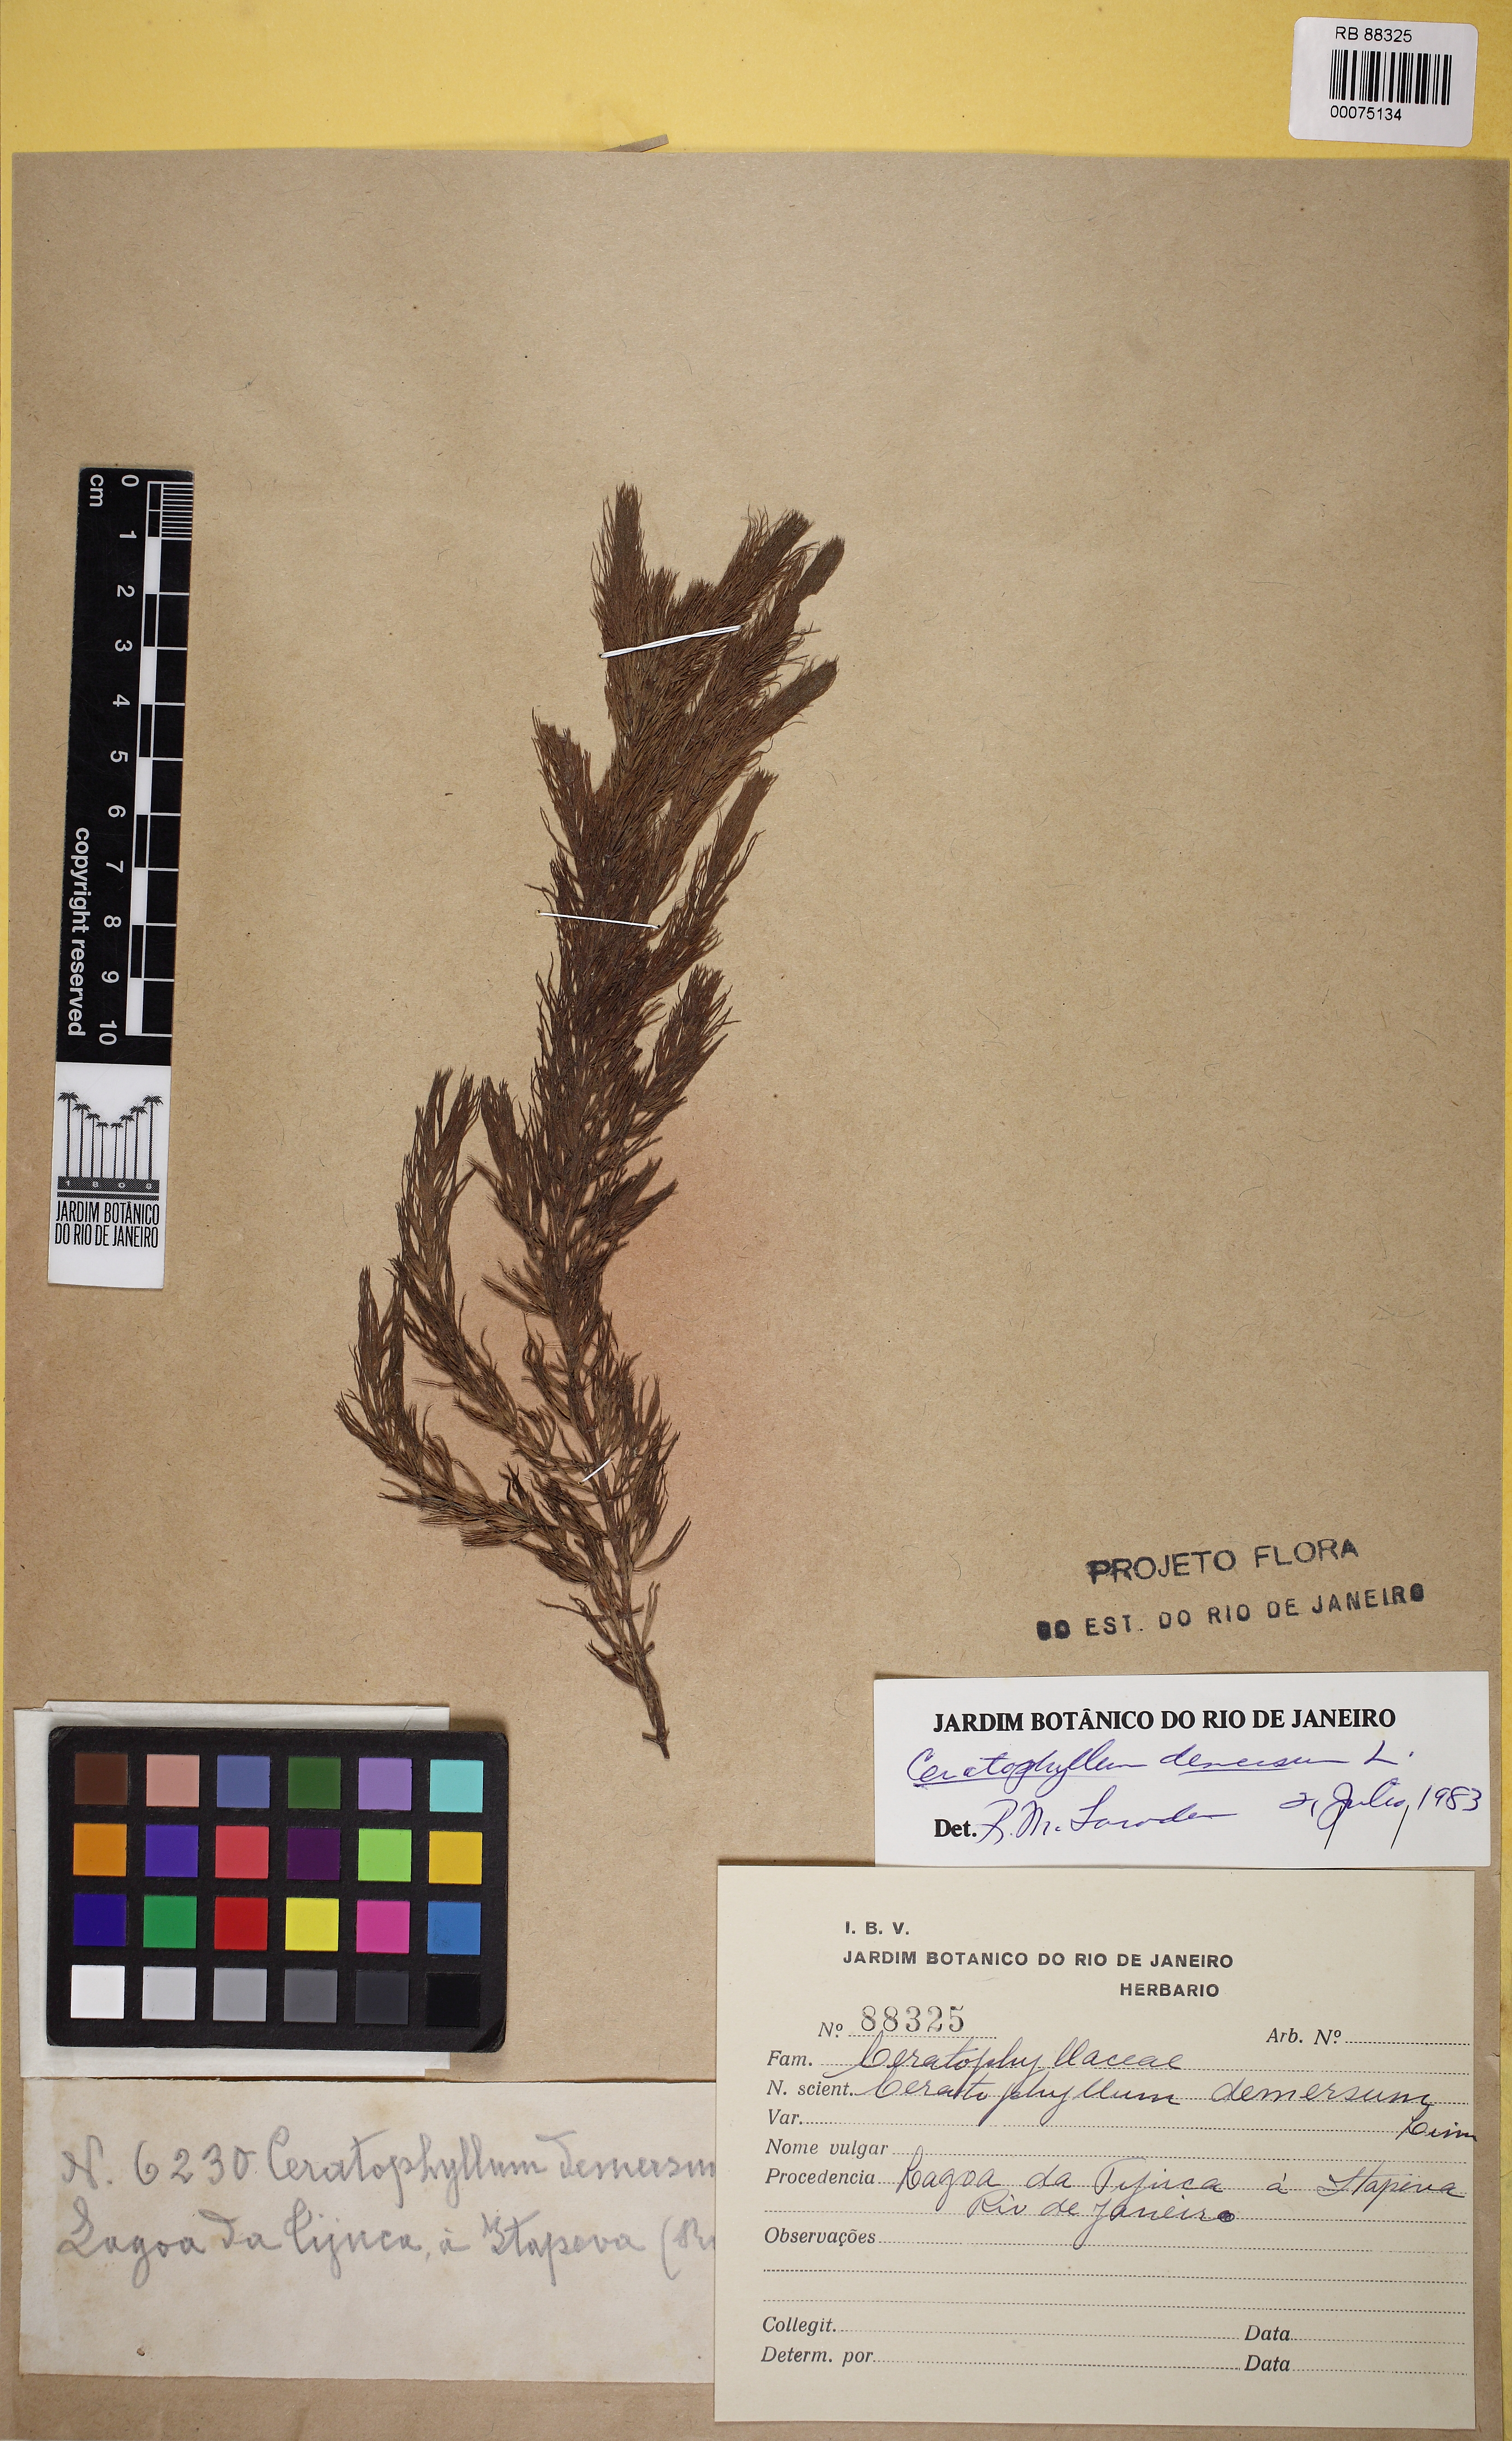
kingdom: Plantae
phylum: Tracheophyta
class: Magnoliopsida
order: Ceratophyllales
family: Ceratophyllaceae
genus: Ceratophyllum
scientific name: Ceratophyllum demersum
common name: Rigid hornwort
